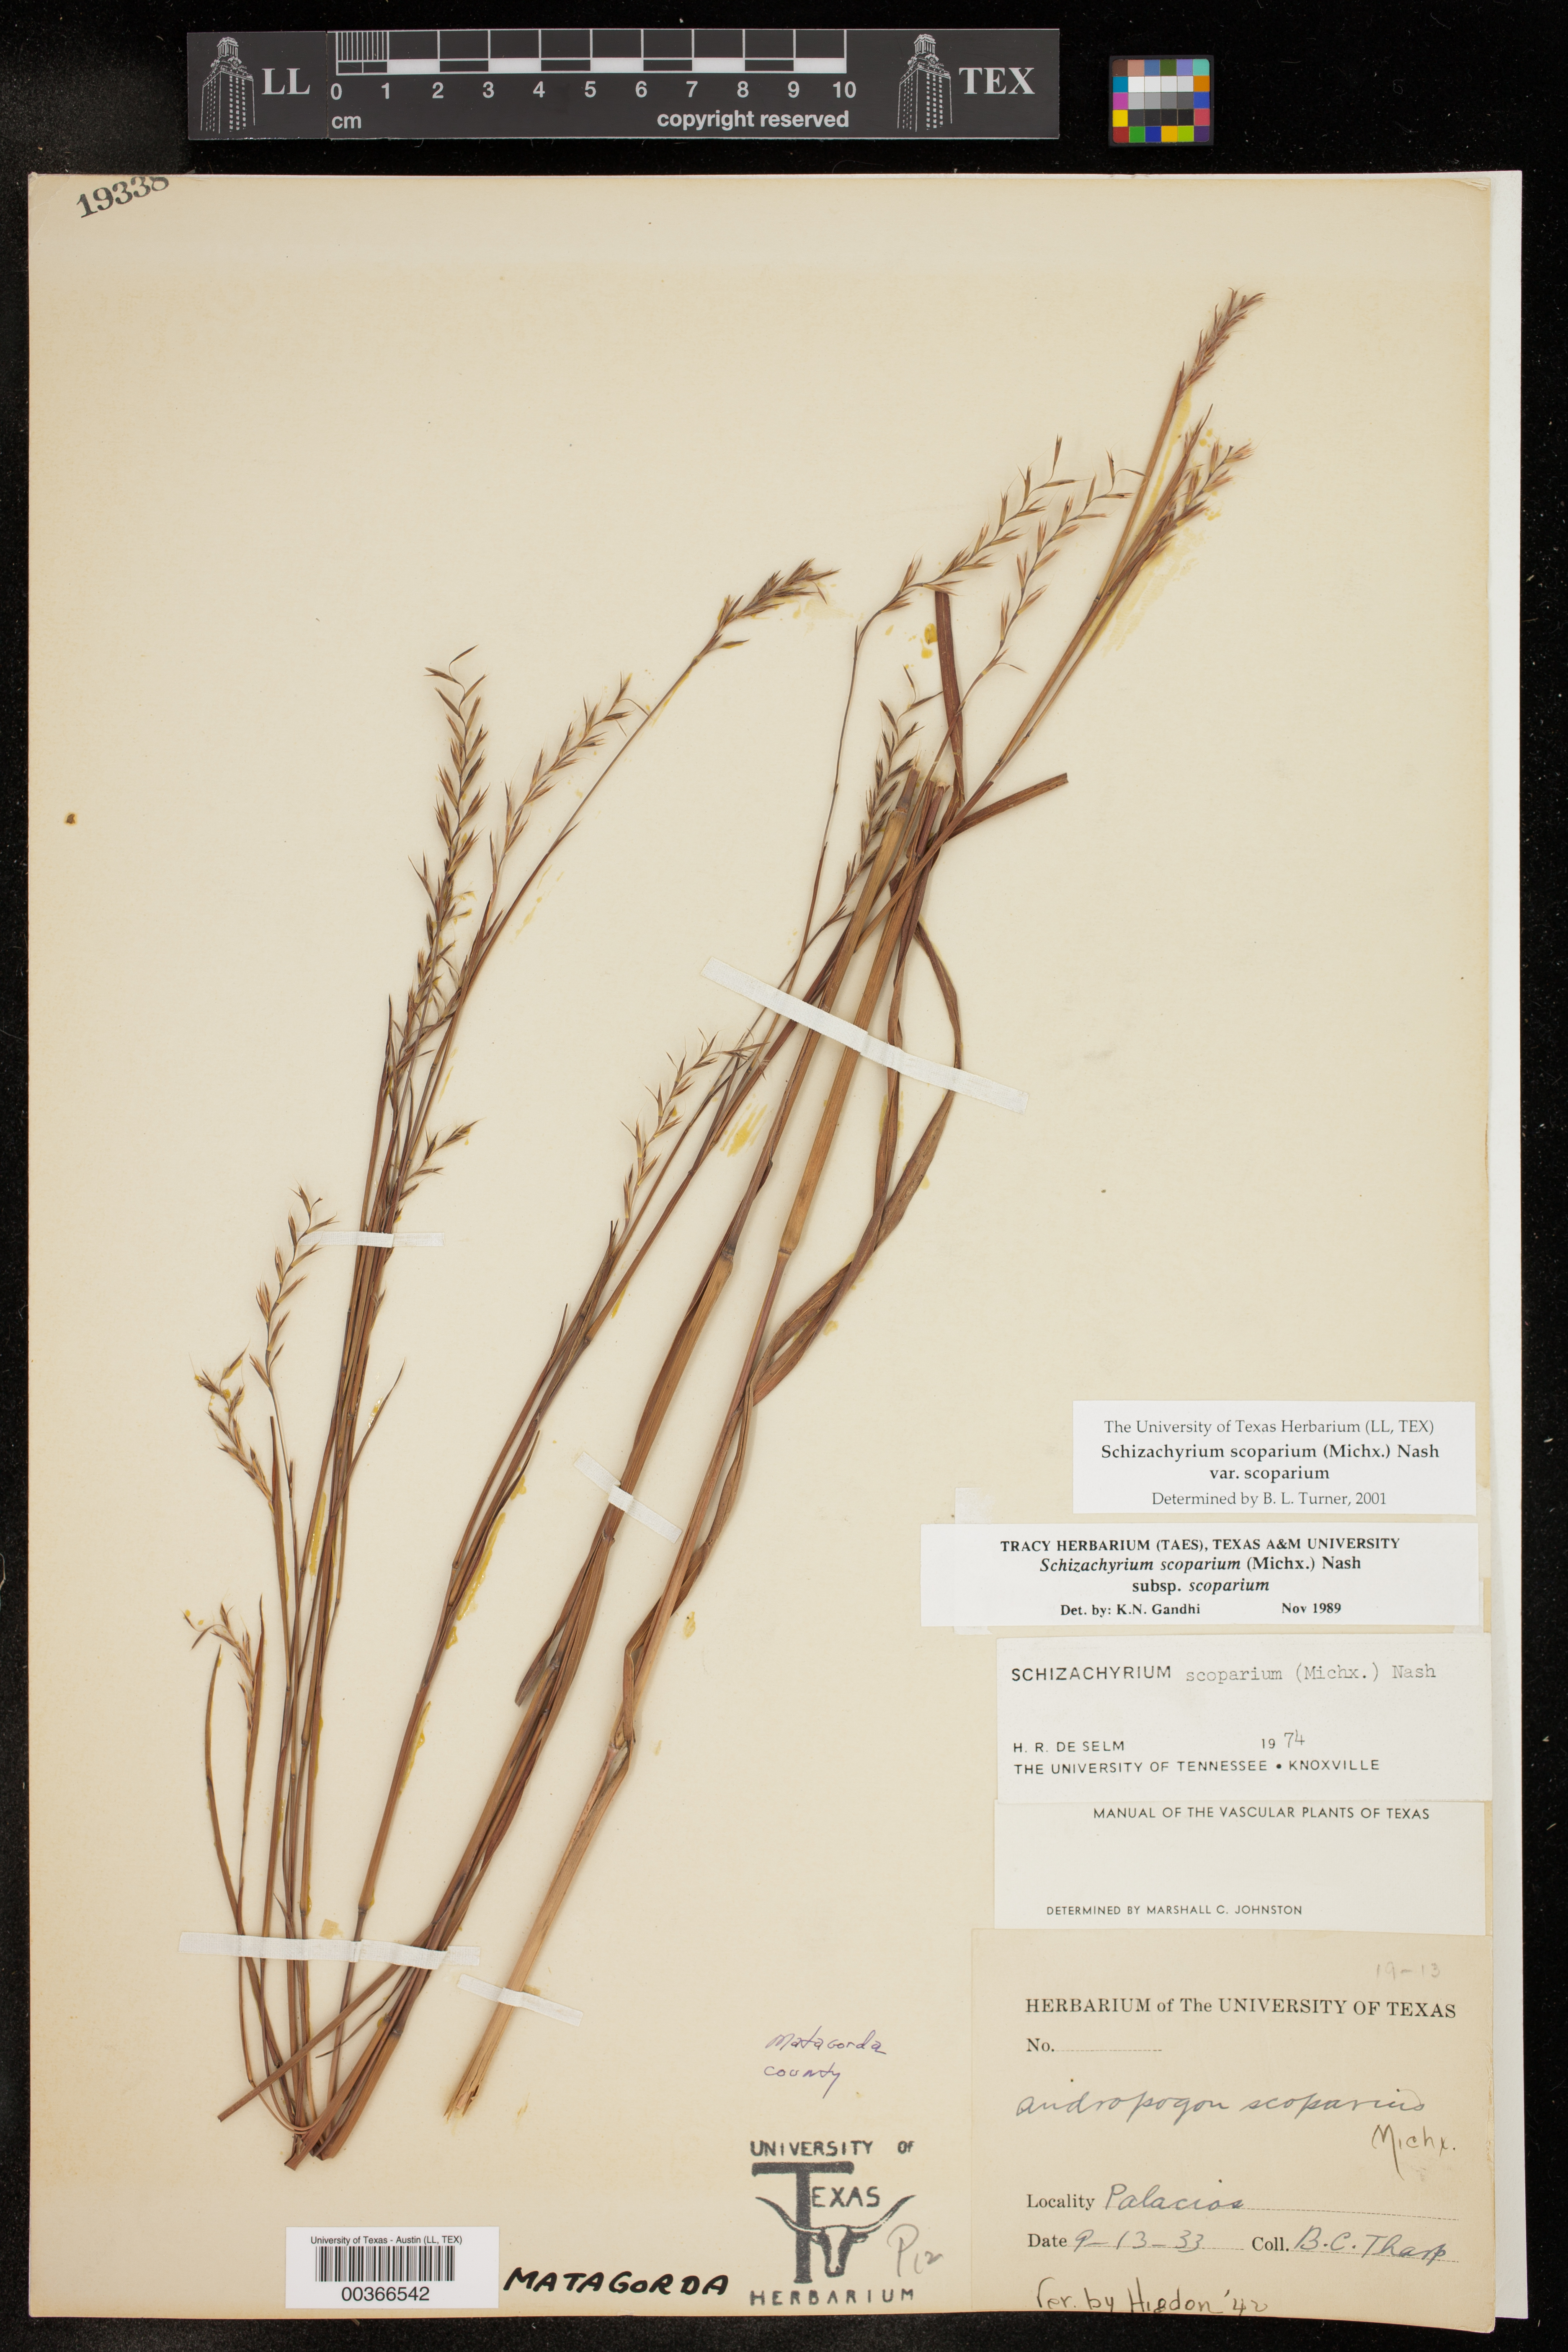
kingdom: Plantae
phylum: Tracheophyta
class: Liliopsida
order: Poales
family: Poaceae
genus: Schizachyrium
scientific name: Schizachyrium scoparium
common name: Little bluestem
